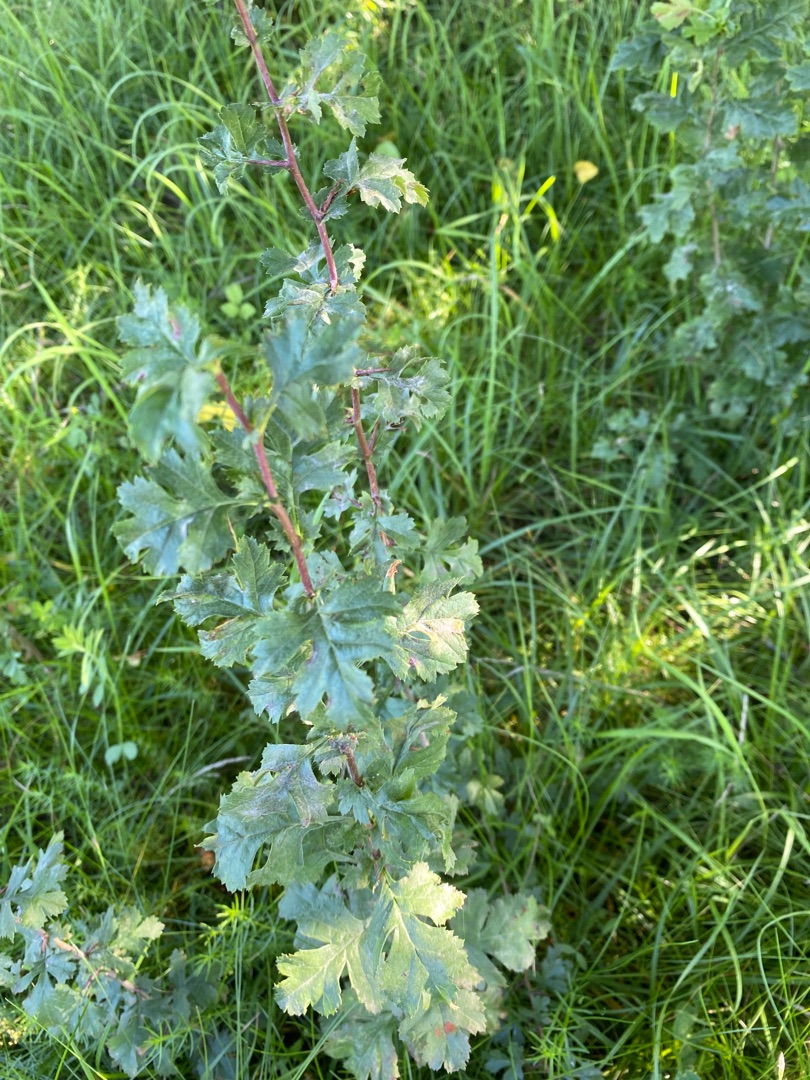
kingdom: Plantae
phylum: Tracheophyta
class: Magnoliopsida
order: Rosales
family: Rosaceae
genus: Crataegus
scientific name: Crataegus monogyna
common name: Engriflet hvidtjørn
